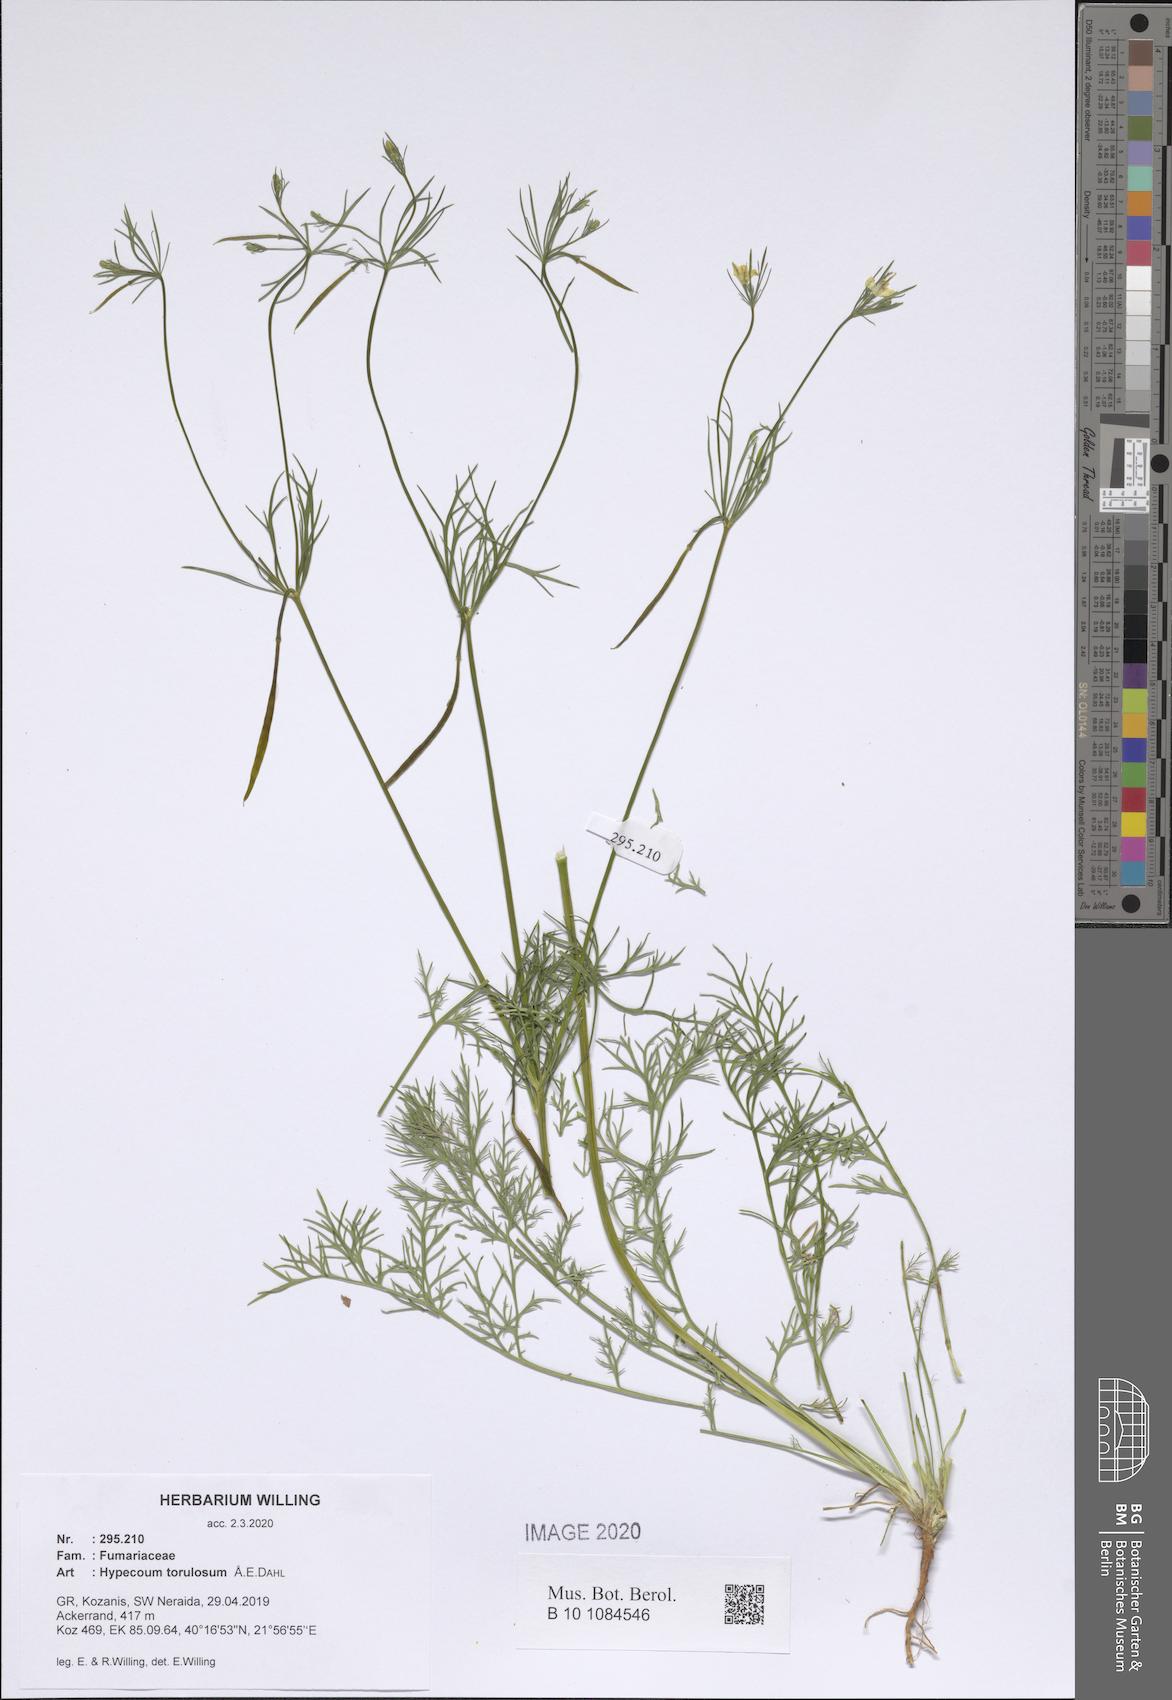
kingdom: Plantae
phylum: Tracheophyta
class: Magnoliopsida
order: Ranunculales
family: Papaveraceae
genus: Hypecoum
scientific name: Hypecoum torulosum
